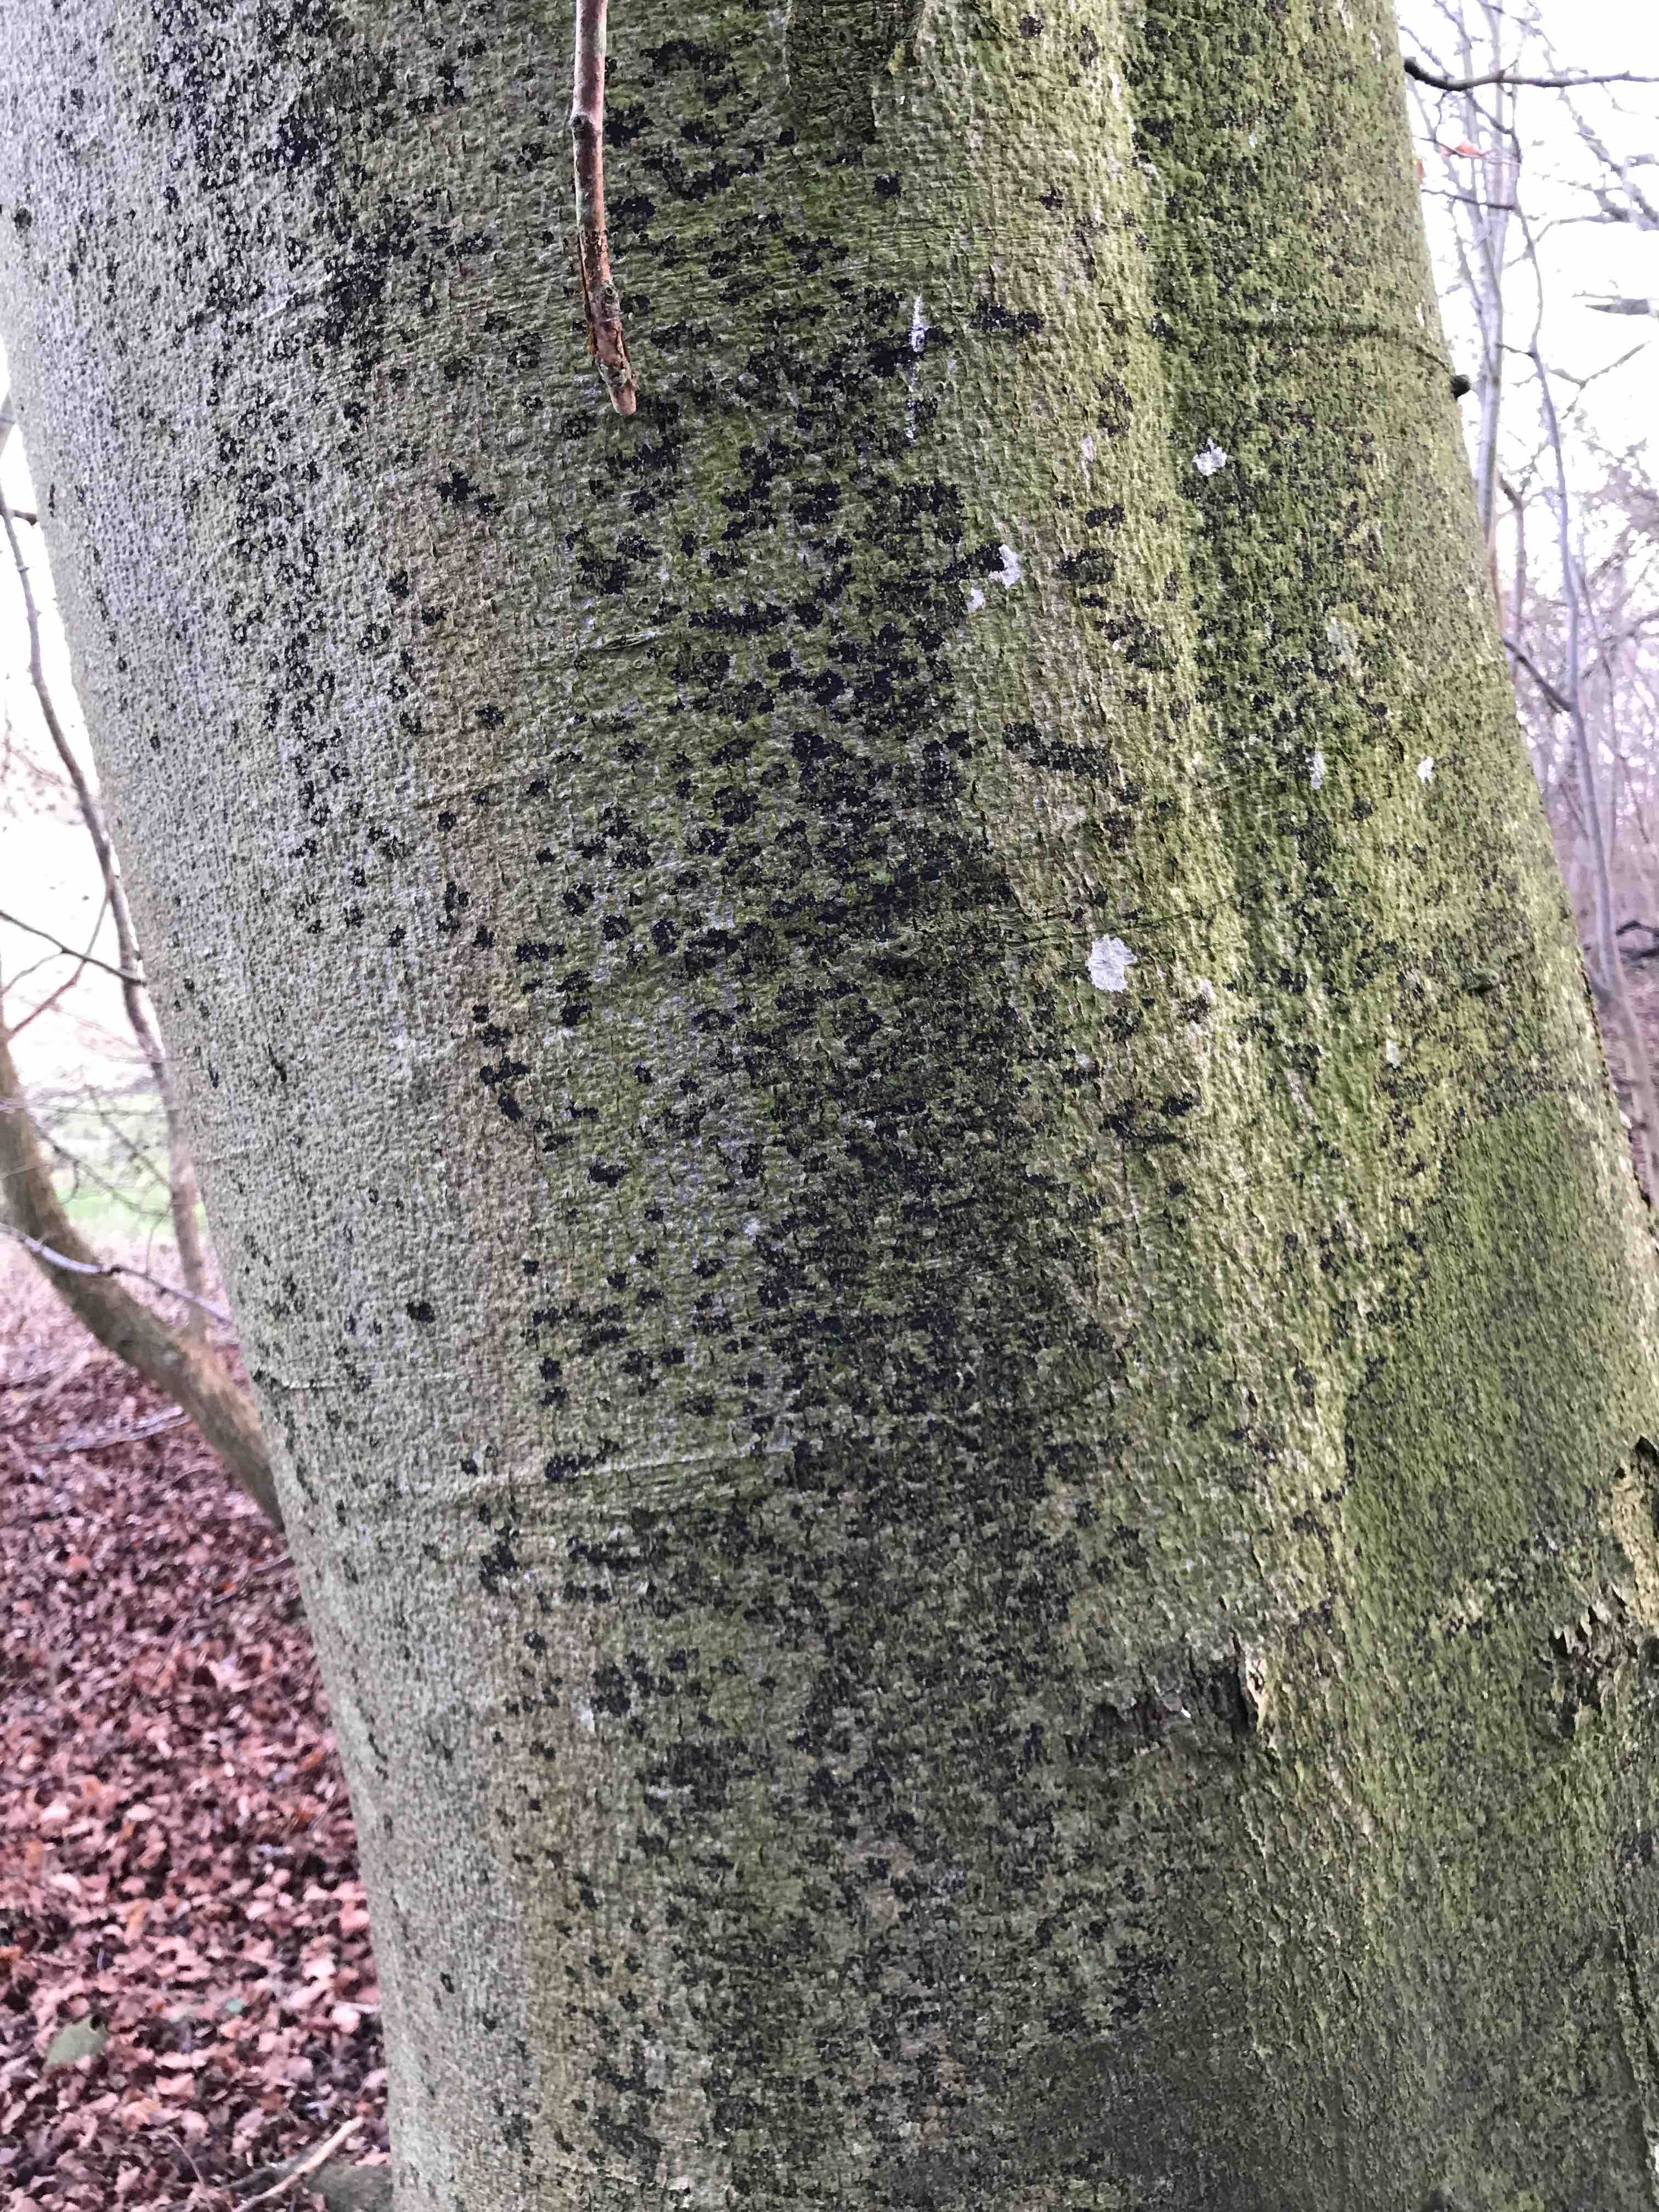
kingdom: Fungi
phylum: Ascomycota
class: Leotiomycetes
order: Rhytismatales
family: Ascodichaenaceae
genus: Ascodichaena
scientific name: Ascodichaena rugosa
